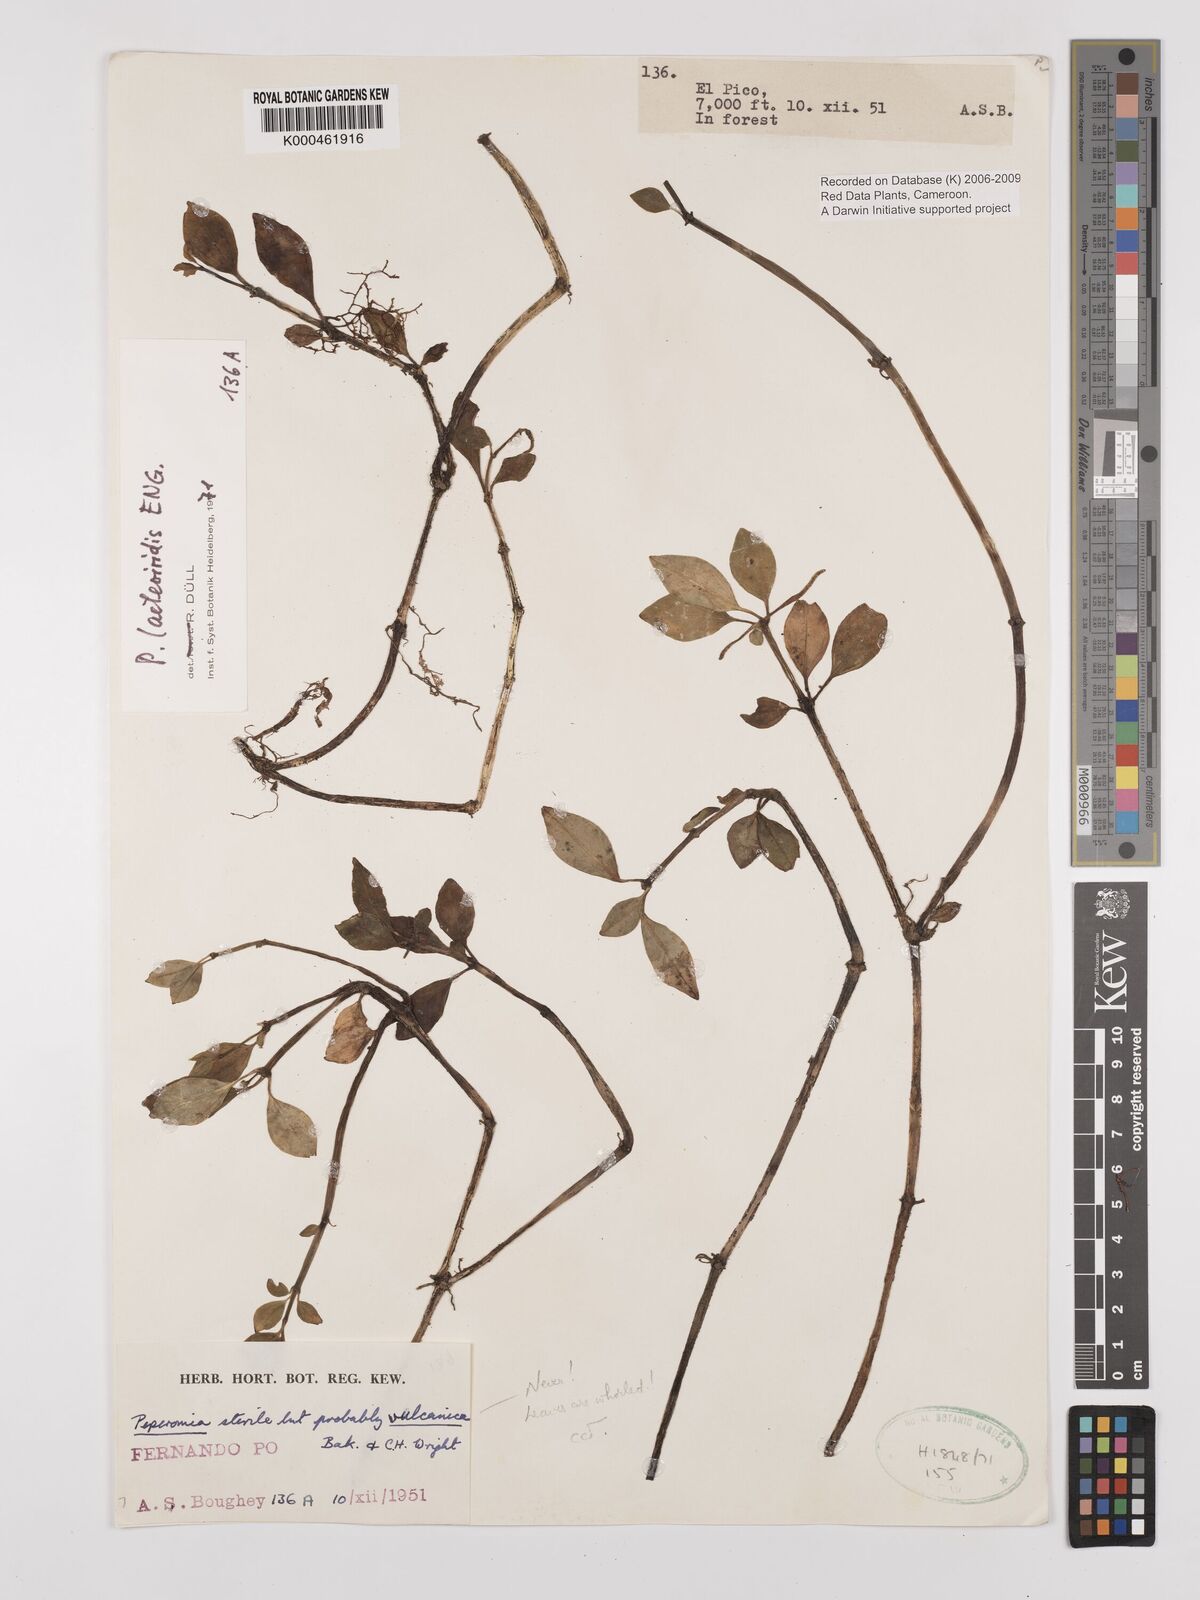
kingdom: Plantae
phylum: Tracheophyta
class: Magnoliopsida
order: Piperales
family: Piperaceae
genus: Peperomia
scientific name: Peperomia laeteviridis
